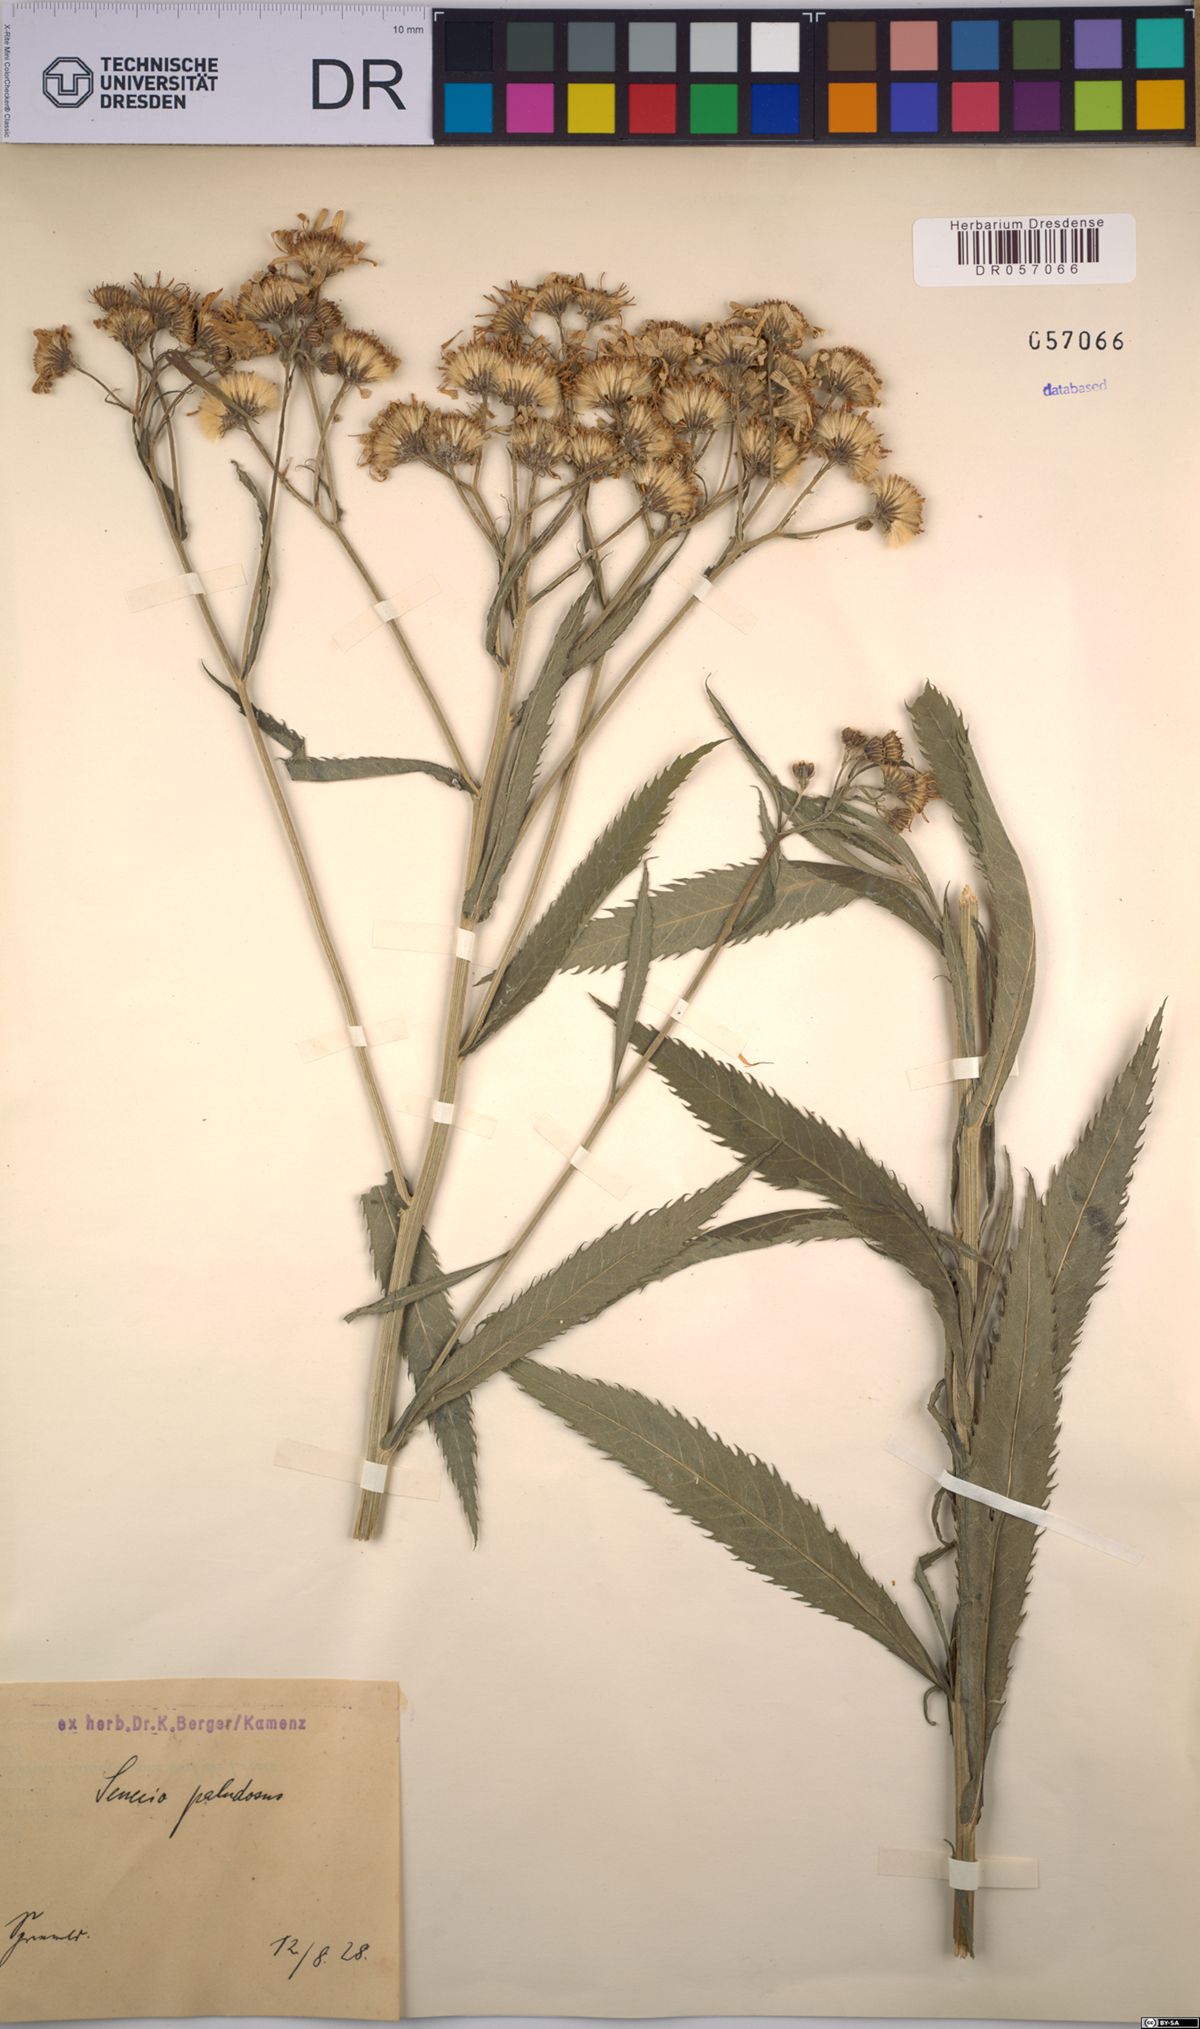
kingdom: Plantae
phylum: Tracheophyta
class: Magnoliopsida
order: Asterales
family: Asteraceae
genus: Jacobaea
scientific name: Jacobaea paludosa
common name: Fen ragwort
